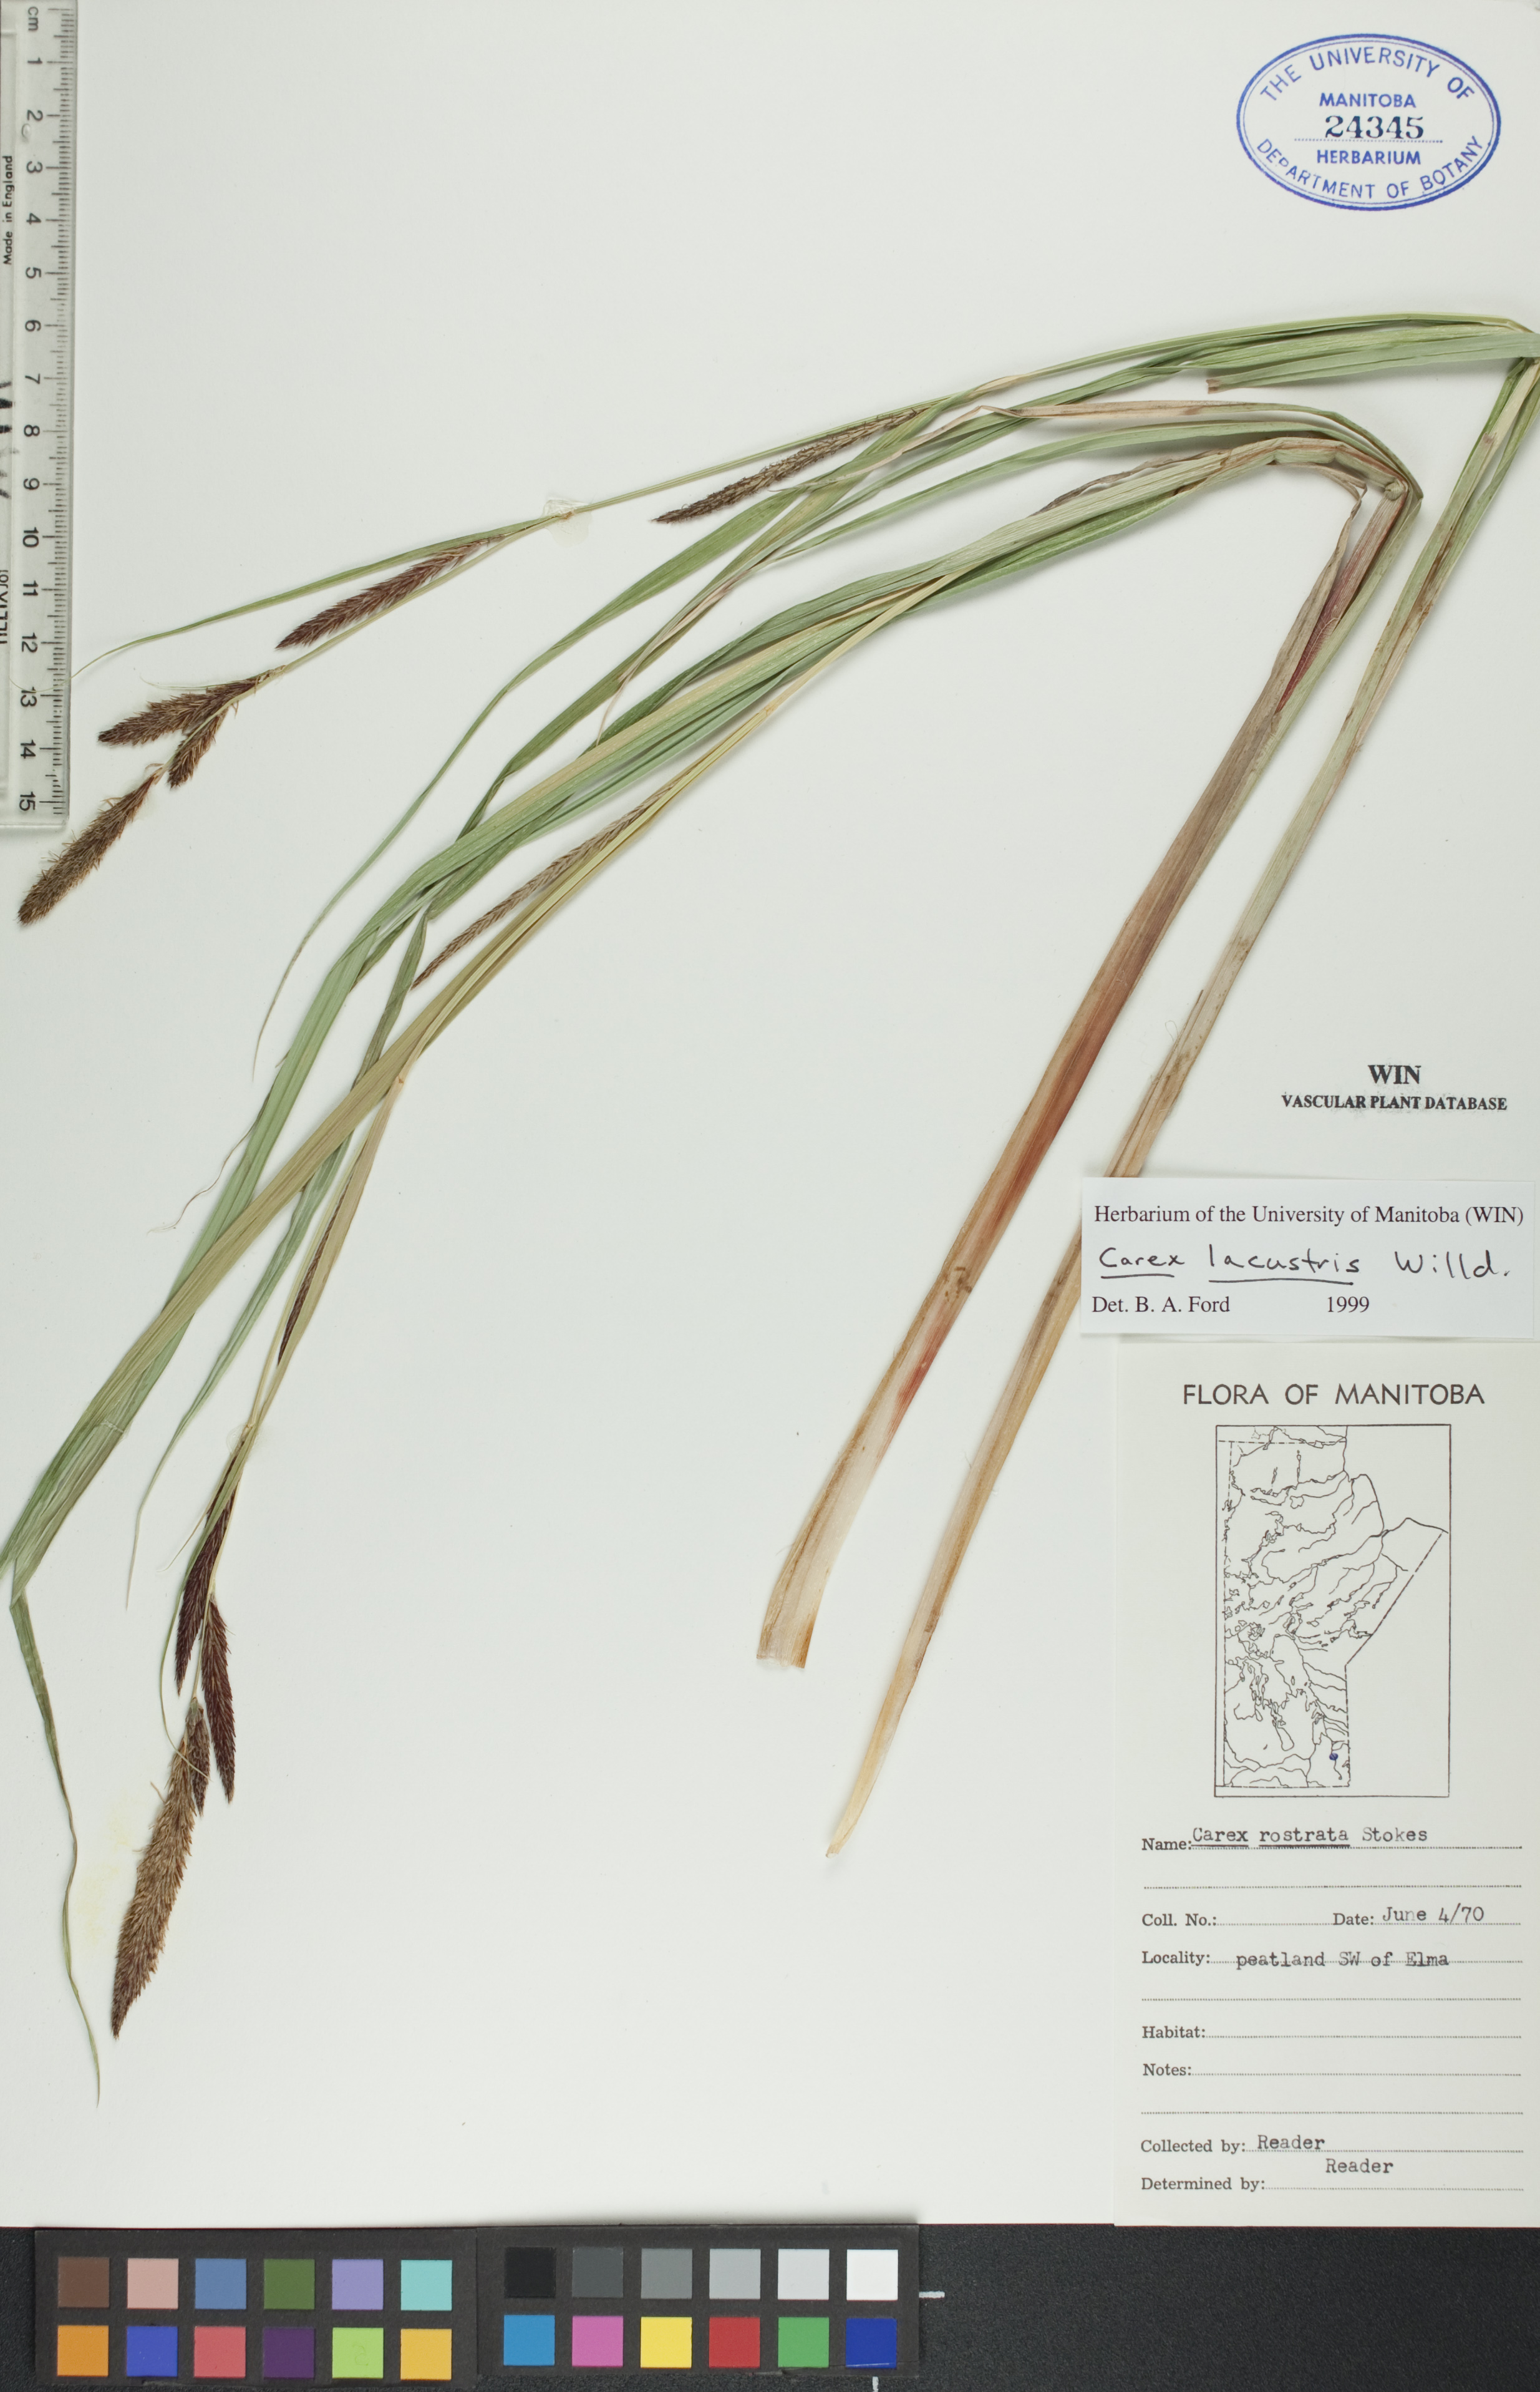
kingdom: Plantae
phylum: Tracheophyta
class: Liliopsida
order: Poales
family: Cyperaceae
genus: Carex
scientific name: Carex lacustris
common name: Common lake sedge
